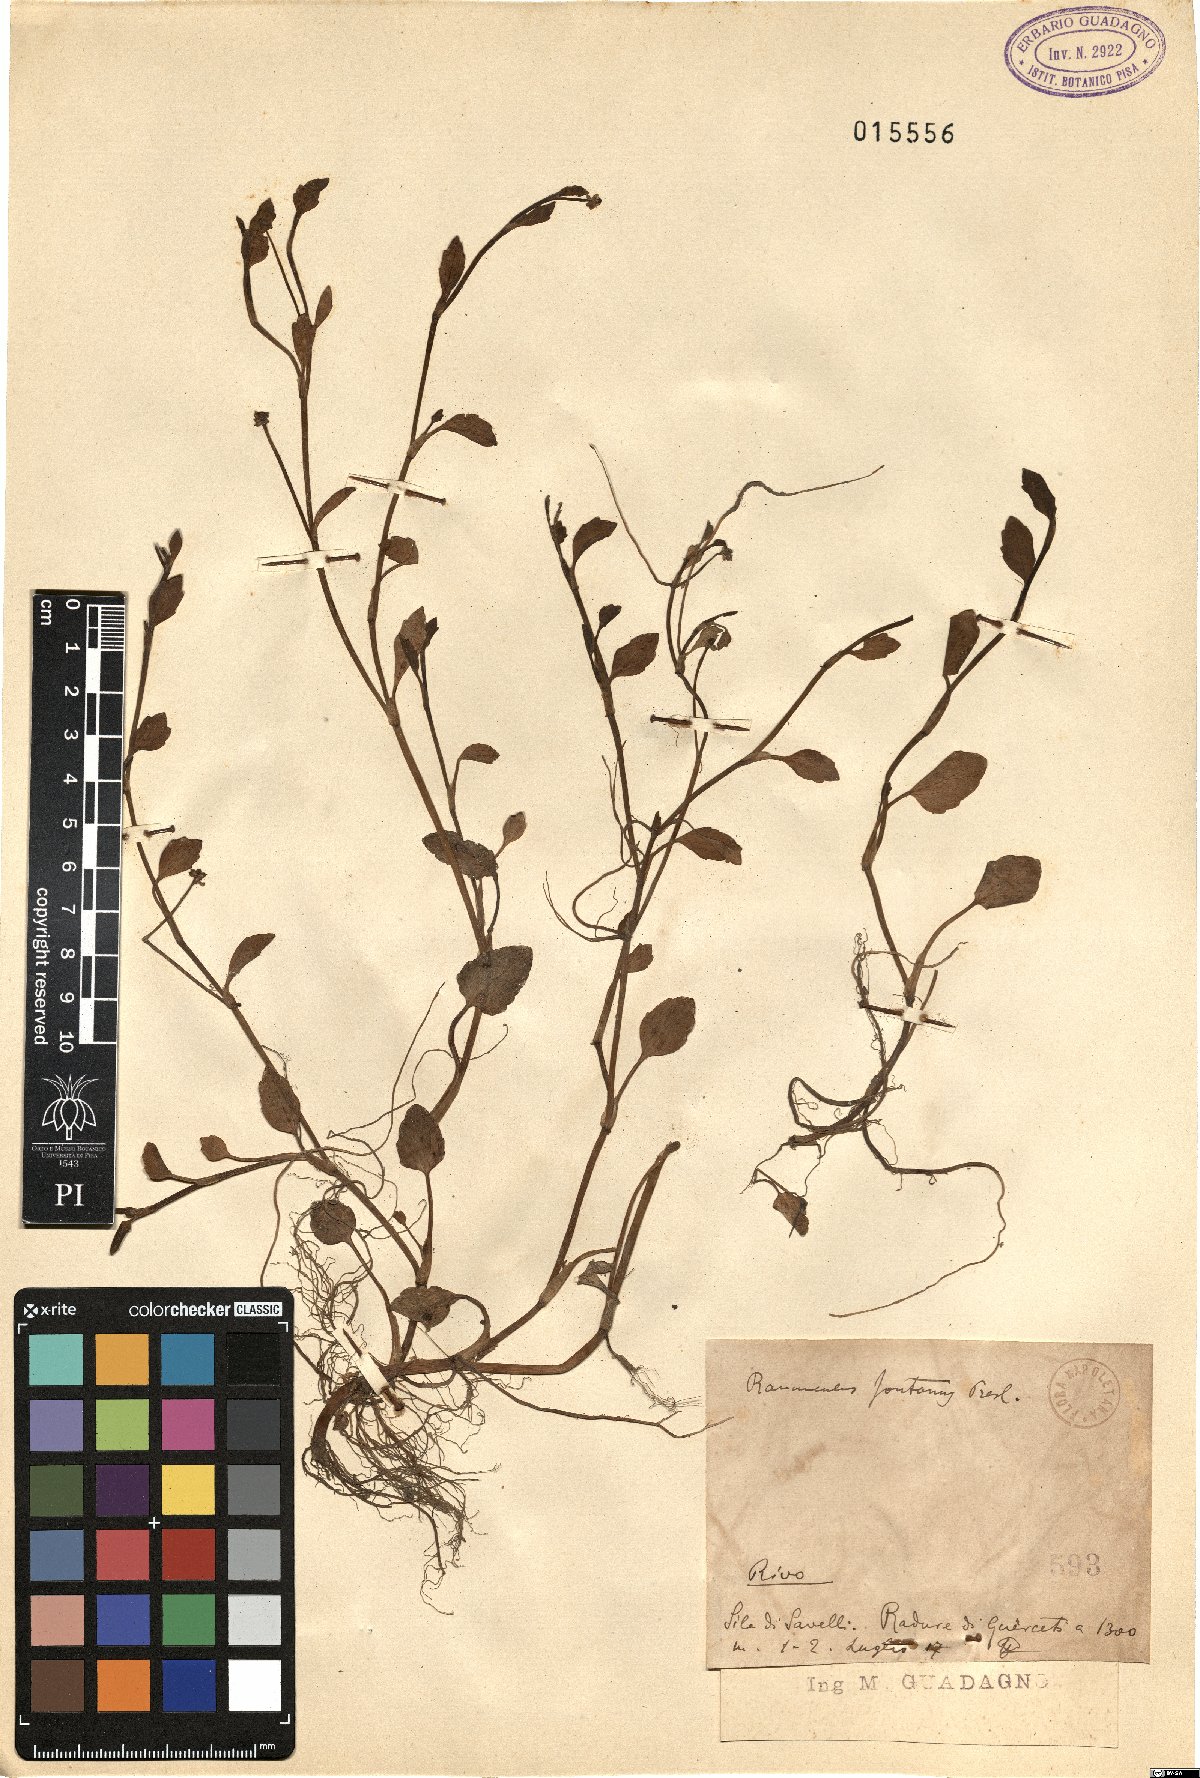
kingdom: Plantae
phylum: Tracheophyta
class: Magnoliopsida
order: Ranunculales
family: Ranunculaceae
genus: Ranunculus
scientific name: Ranunculus fontanus
